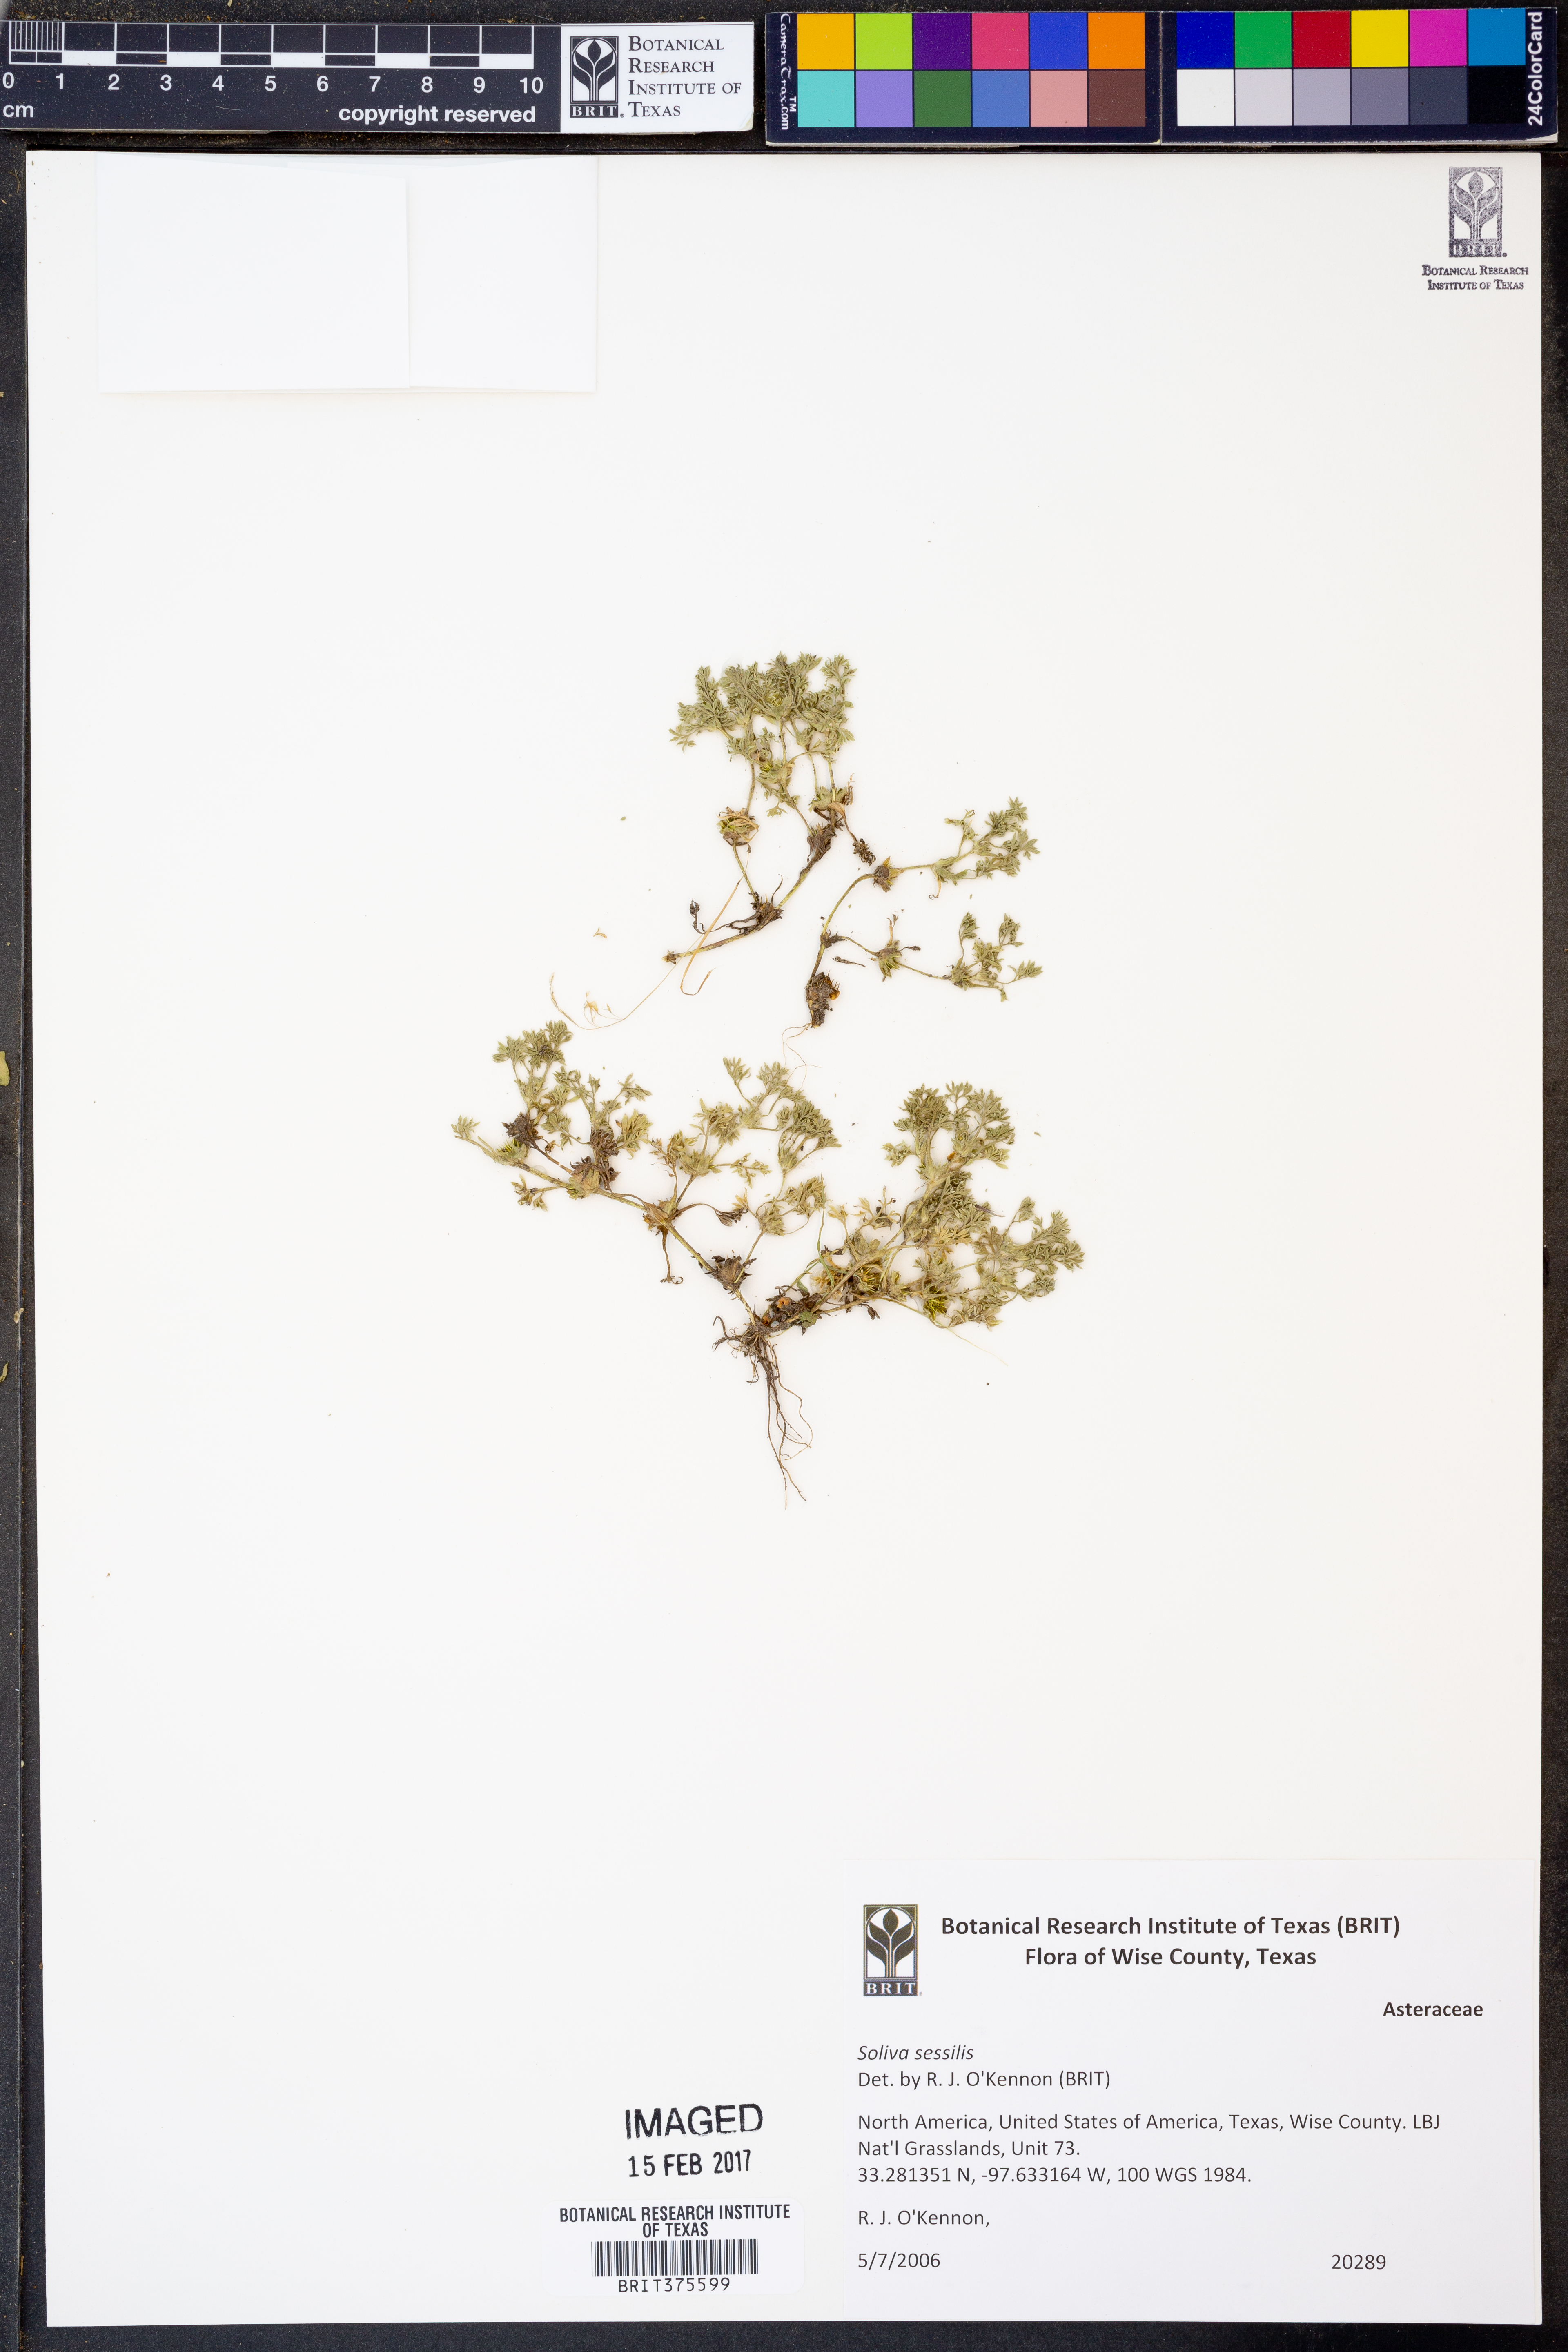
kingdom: Plantae
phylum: Tracheophyta
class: Magnoliopsida
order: Asterales
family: Asteraceae
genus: Soliva
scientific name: Soliva sessilis
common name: Field burrweed
